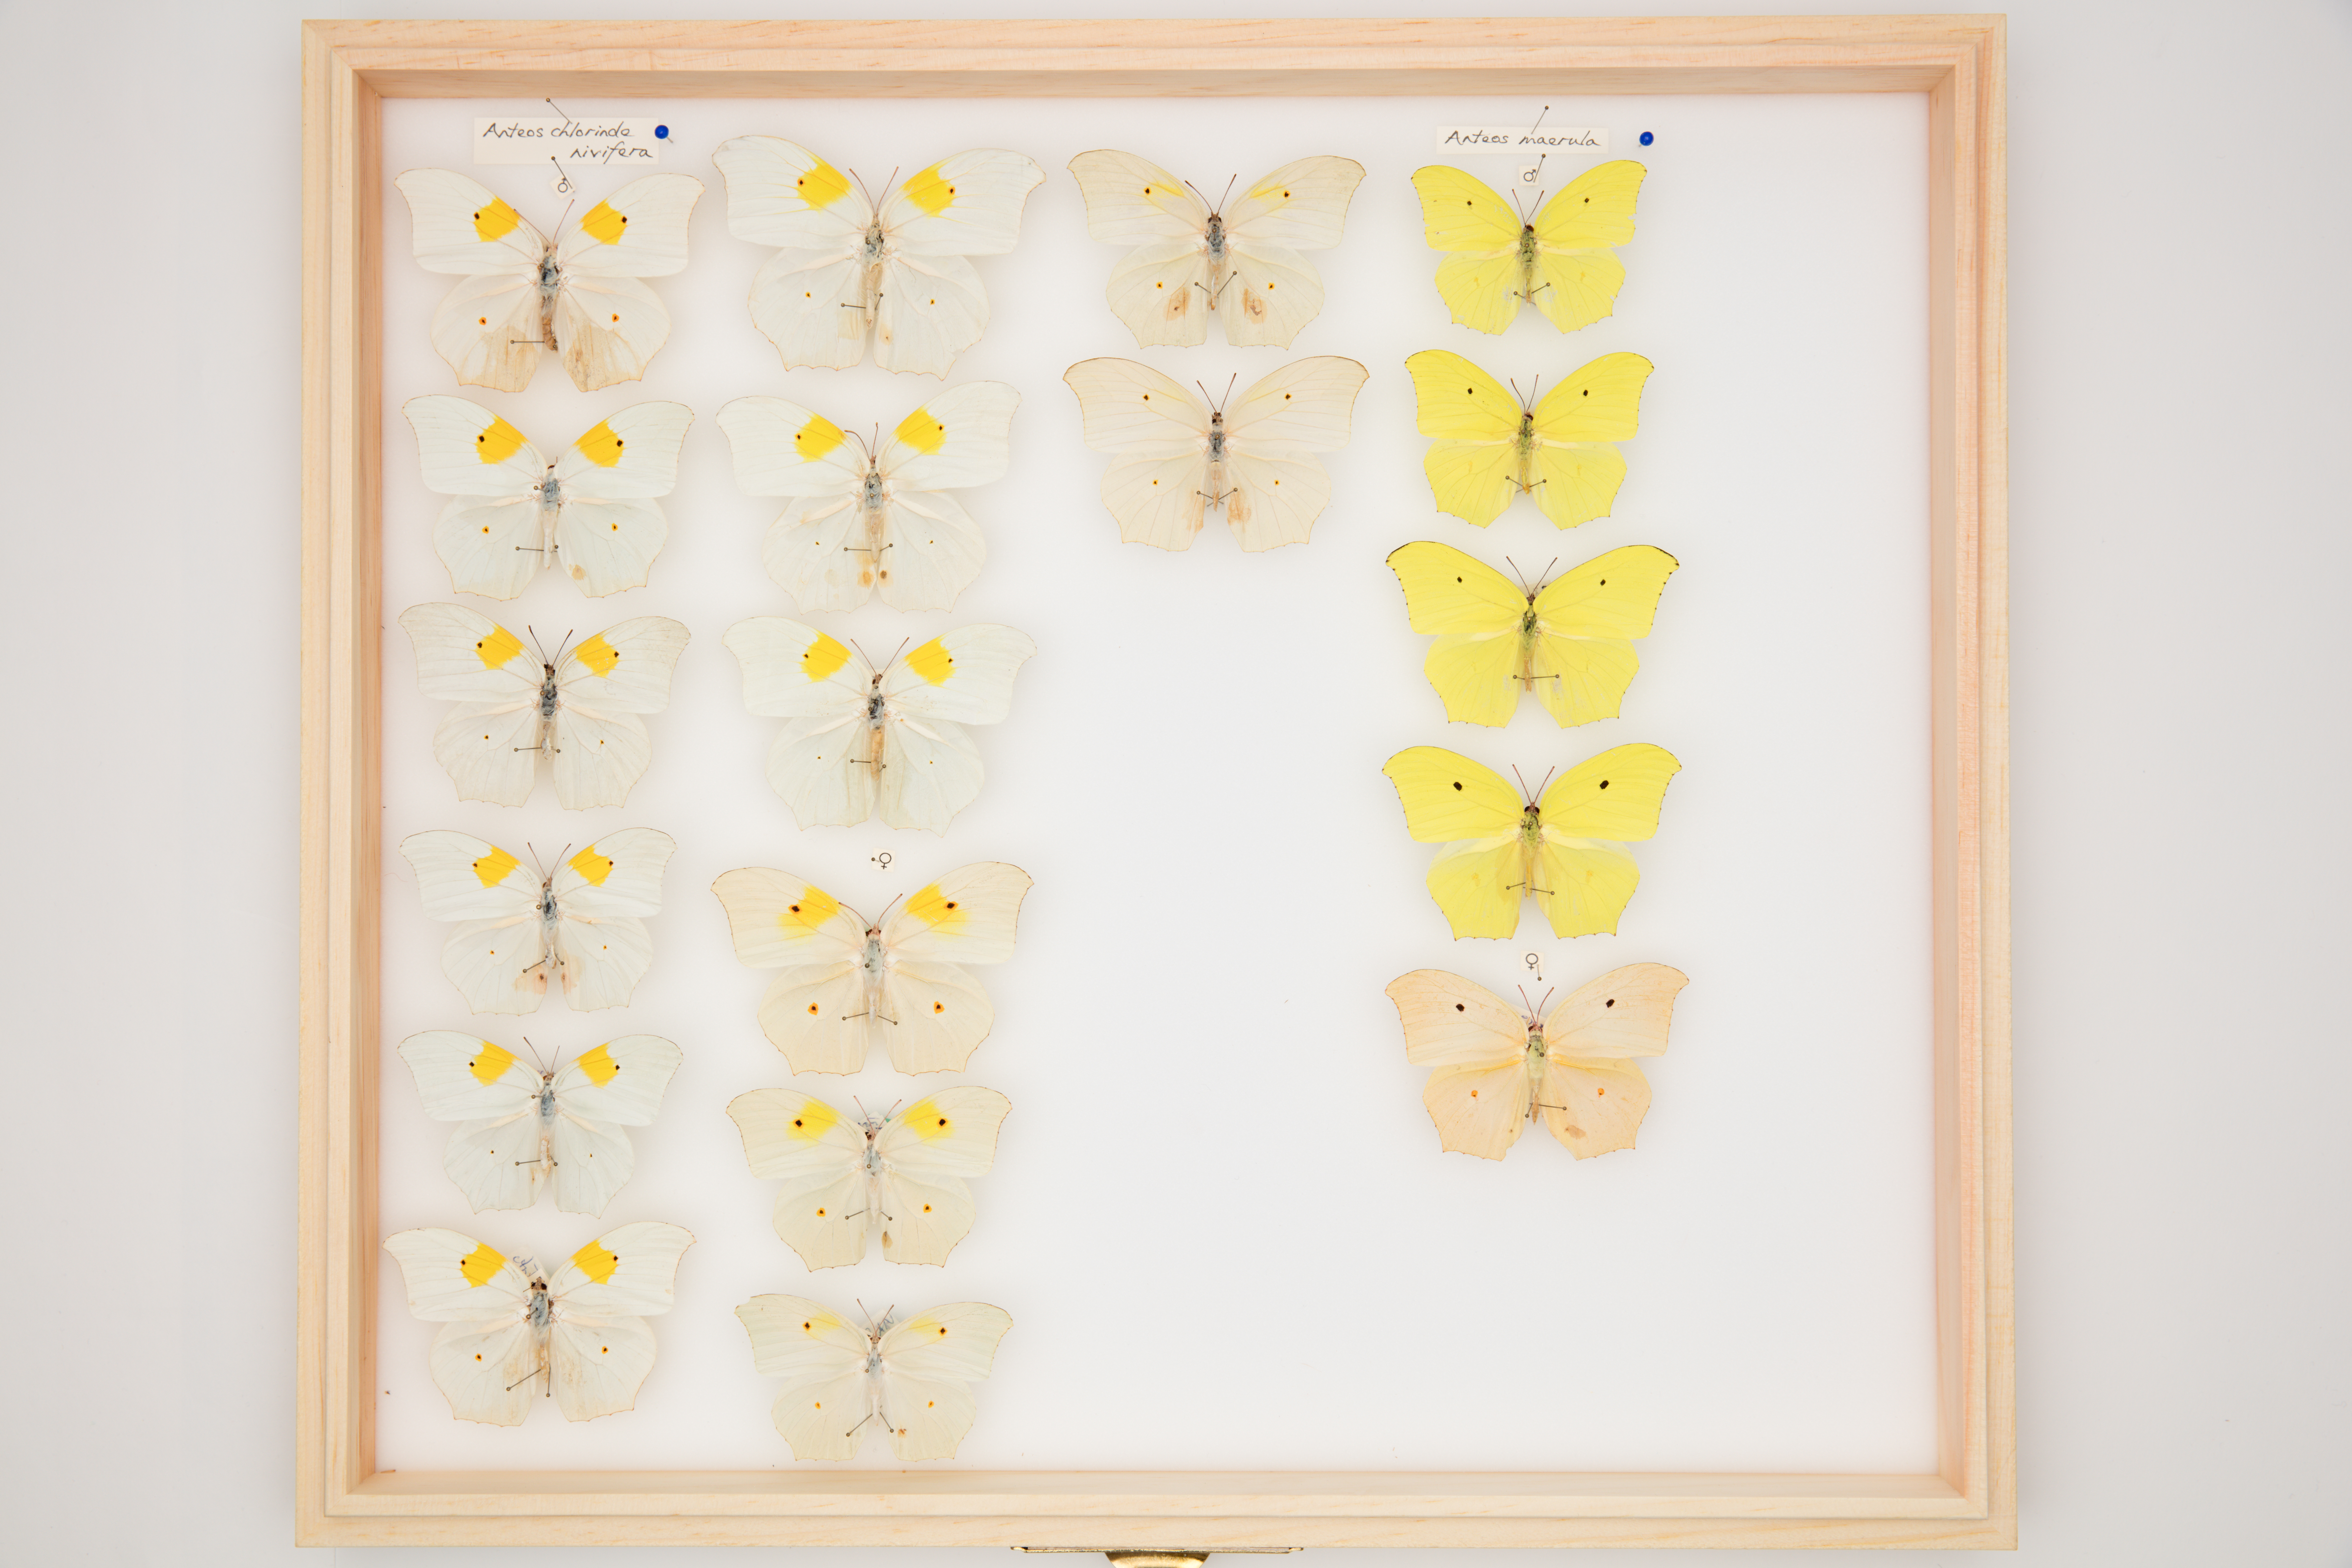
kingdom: Animalia
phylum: Arthropoda
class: Insecta
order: Lepidoptera
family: Pieridae
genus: Anteos
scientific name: Anteos maerula
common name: Angled sulphur
